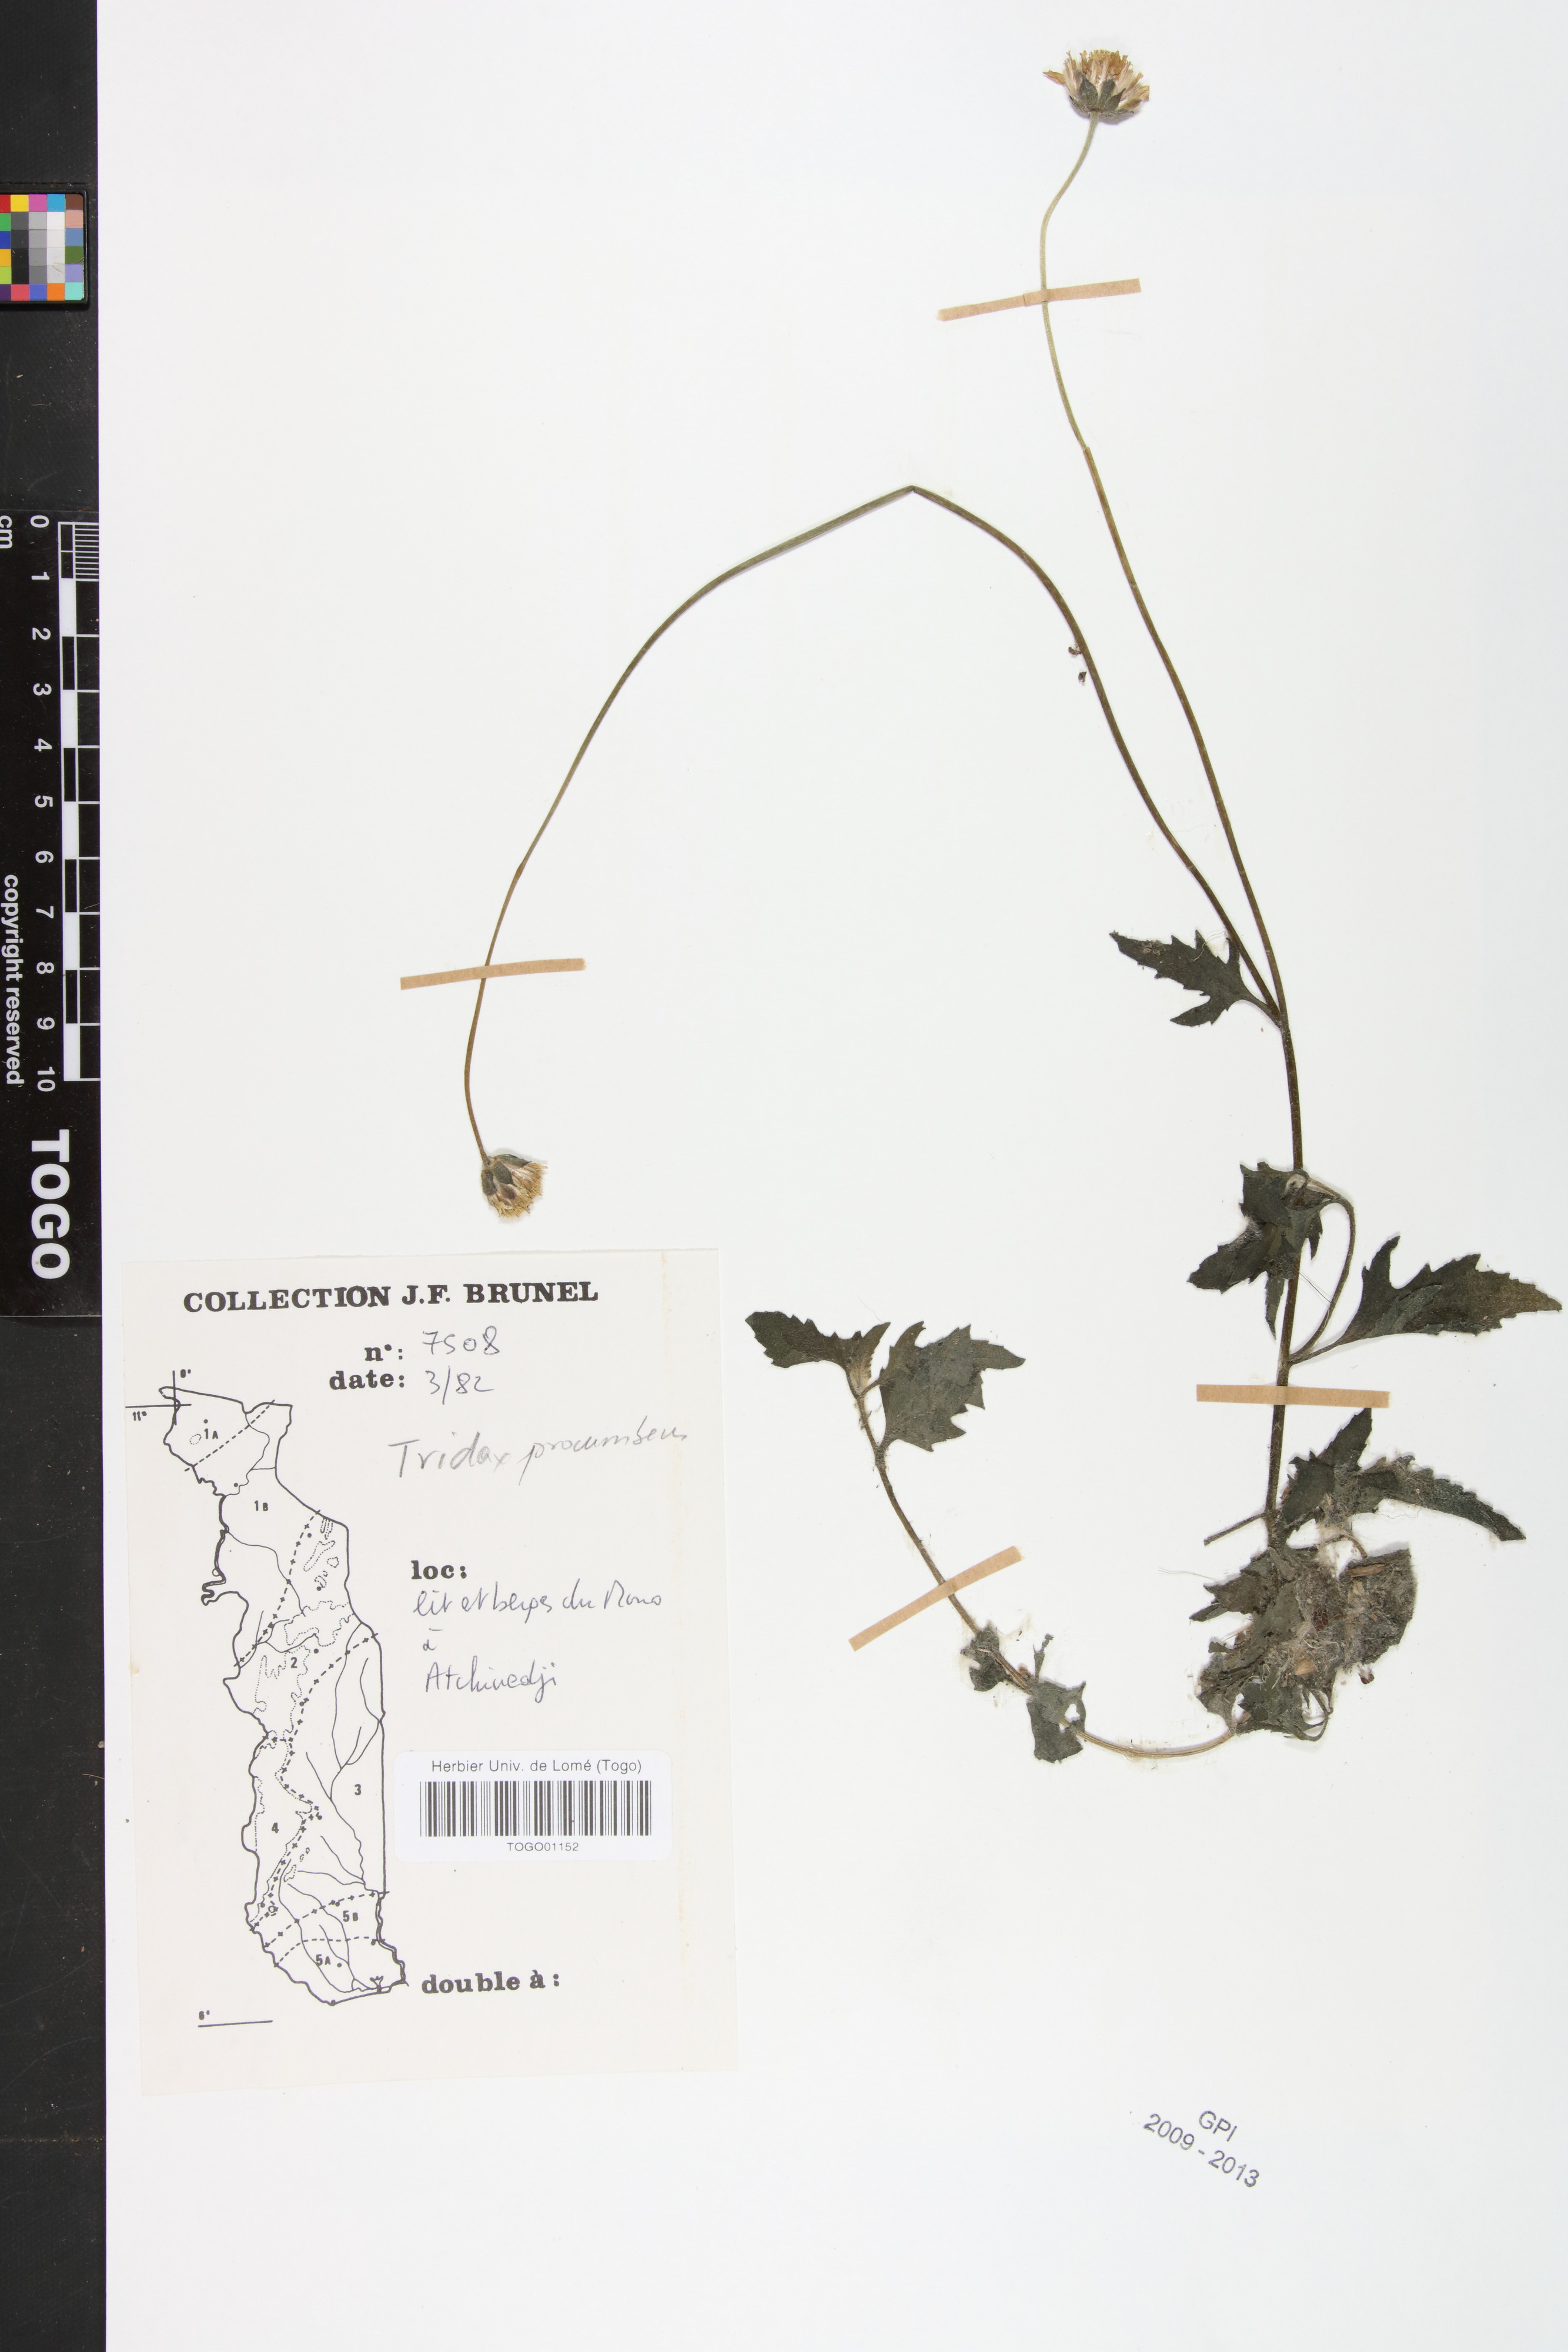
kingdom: Plantae
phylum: Tracheophyta
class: Magnoliopsida
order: Asterales
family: Asteraceae
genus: Tridax
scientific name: Tridax procumbens
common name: Coatbuttons
